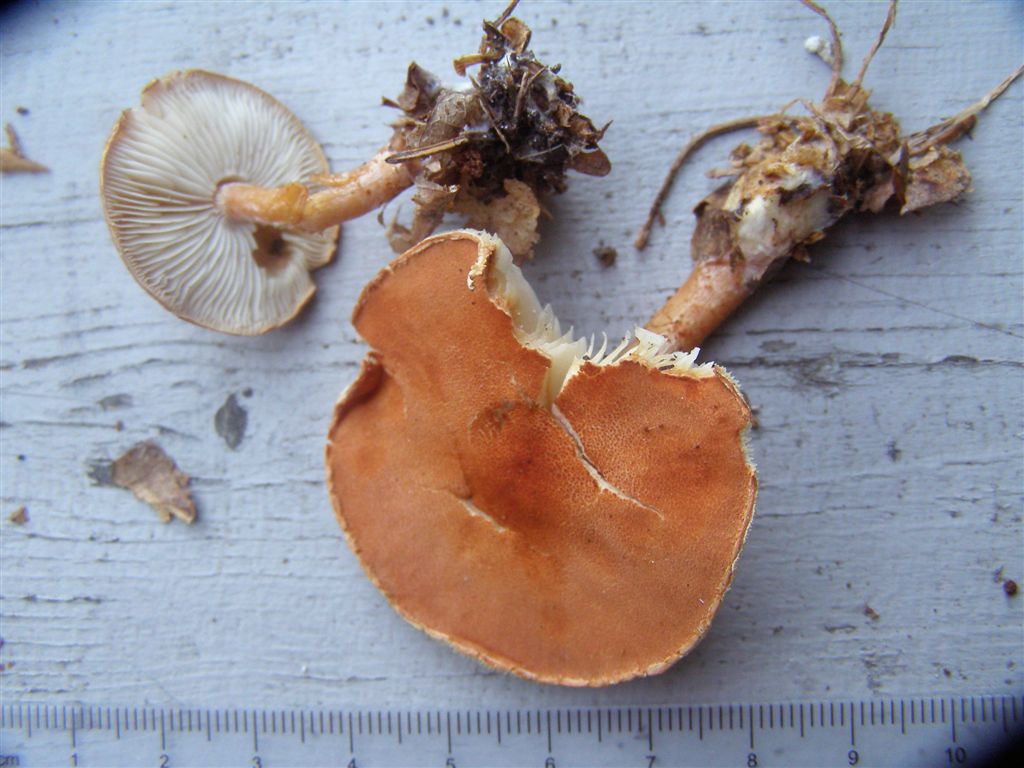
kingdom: Fungi
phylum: Basidiomycota
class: Agaricomycetes
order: Agaricales
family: Agaricaceae
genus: Cystodermella
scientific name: Cystodermella cinnabarina
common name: cinnober-grynhat
